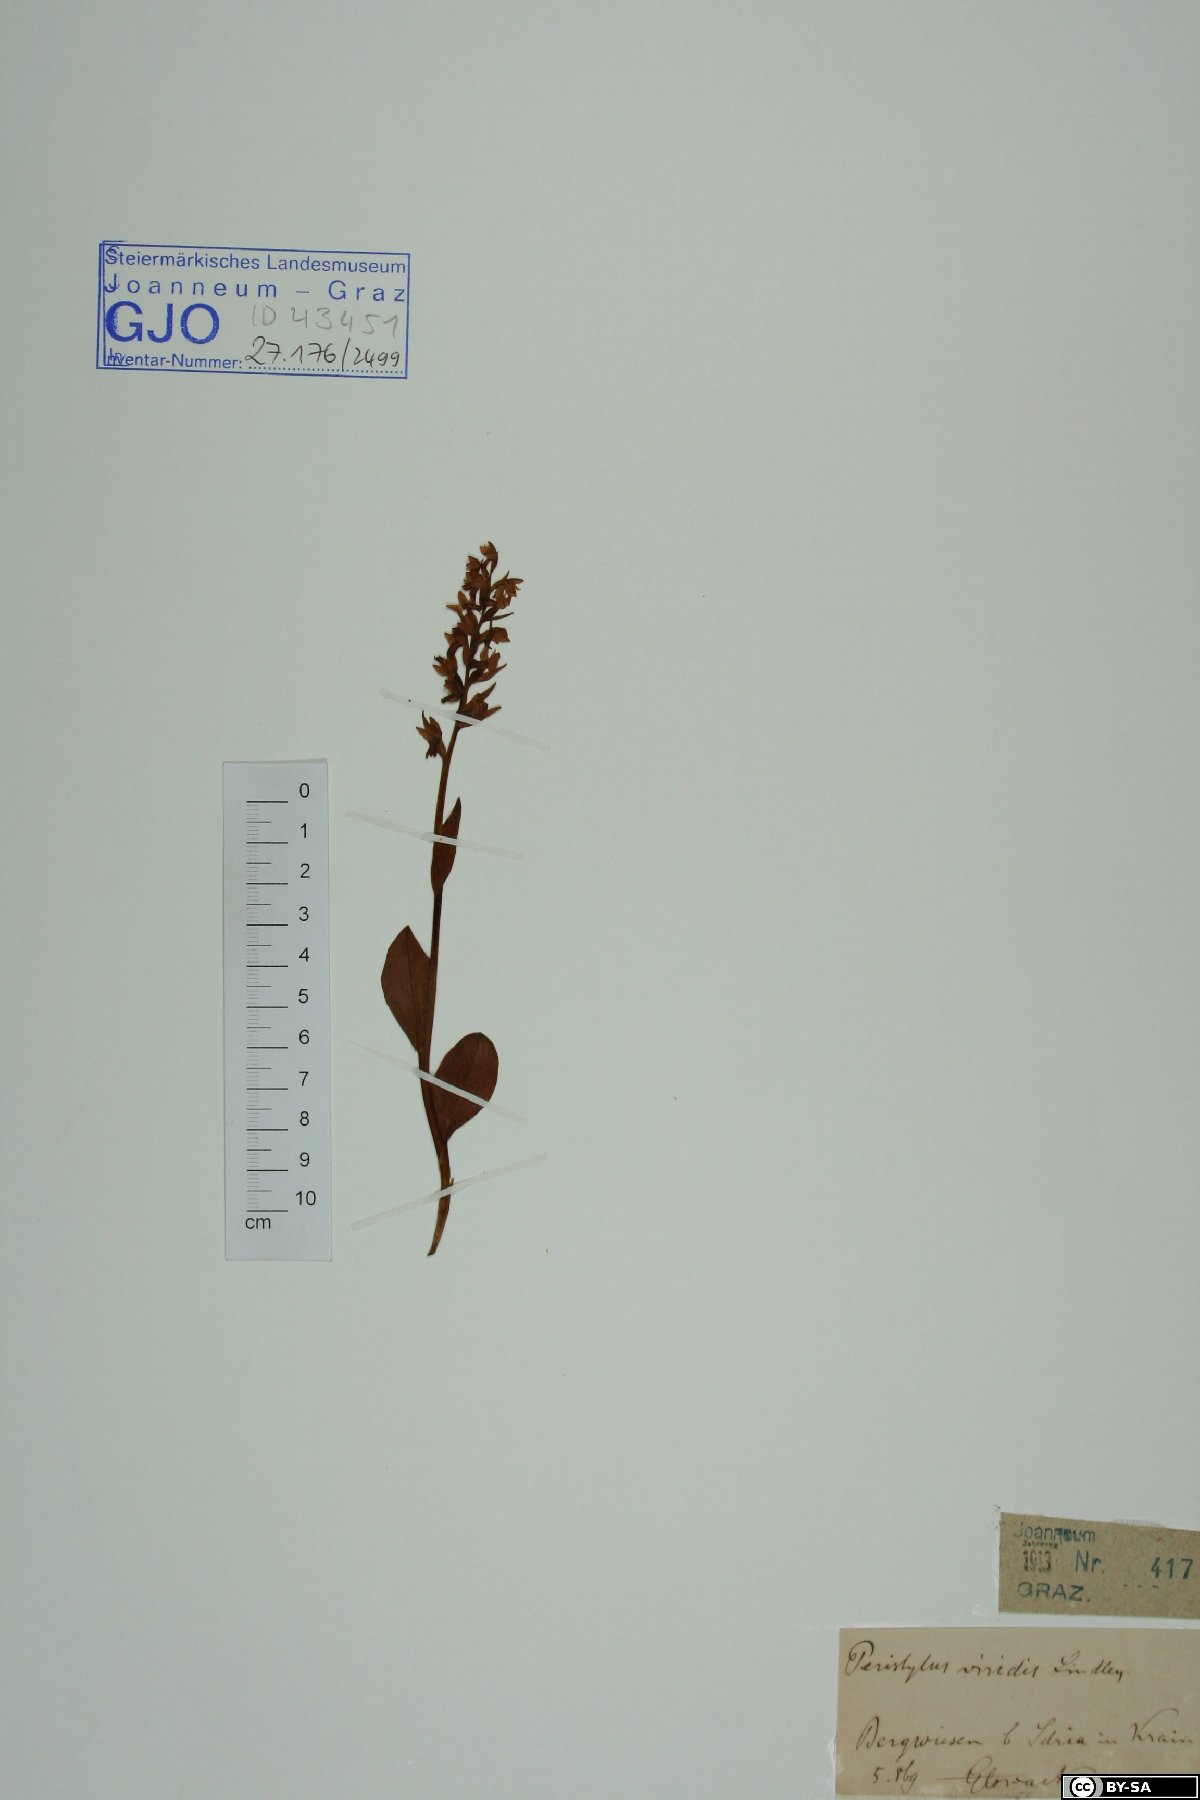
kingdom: Plantae
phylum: Tracheophyta
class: Liliopsida
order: Asparagales
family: Orchidaceae
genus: Dactylorhiza
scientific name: Dactylorhiza viridis
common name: Longbract frog orchid
